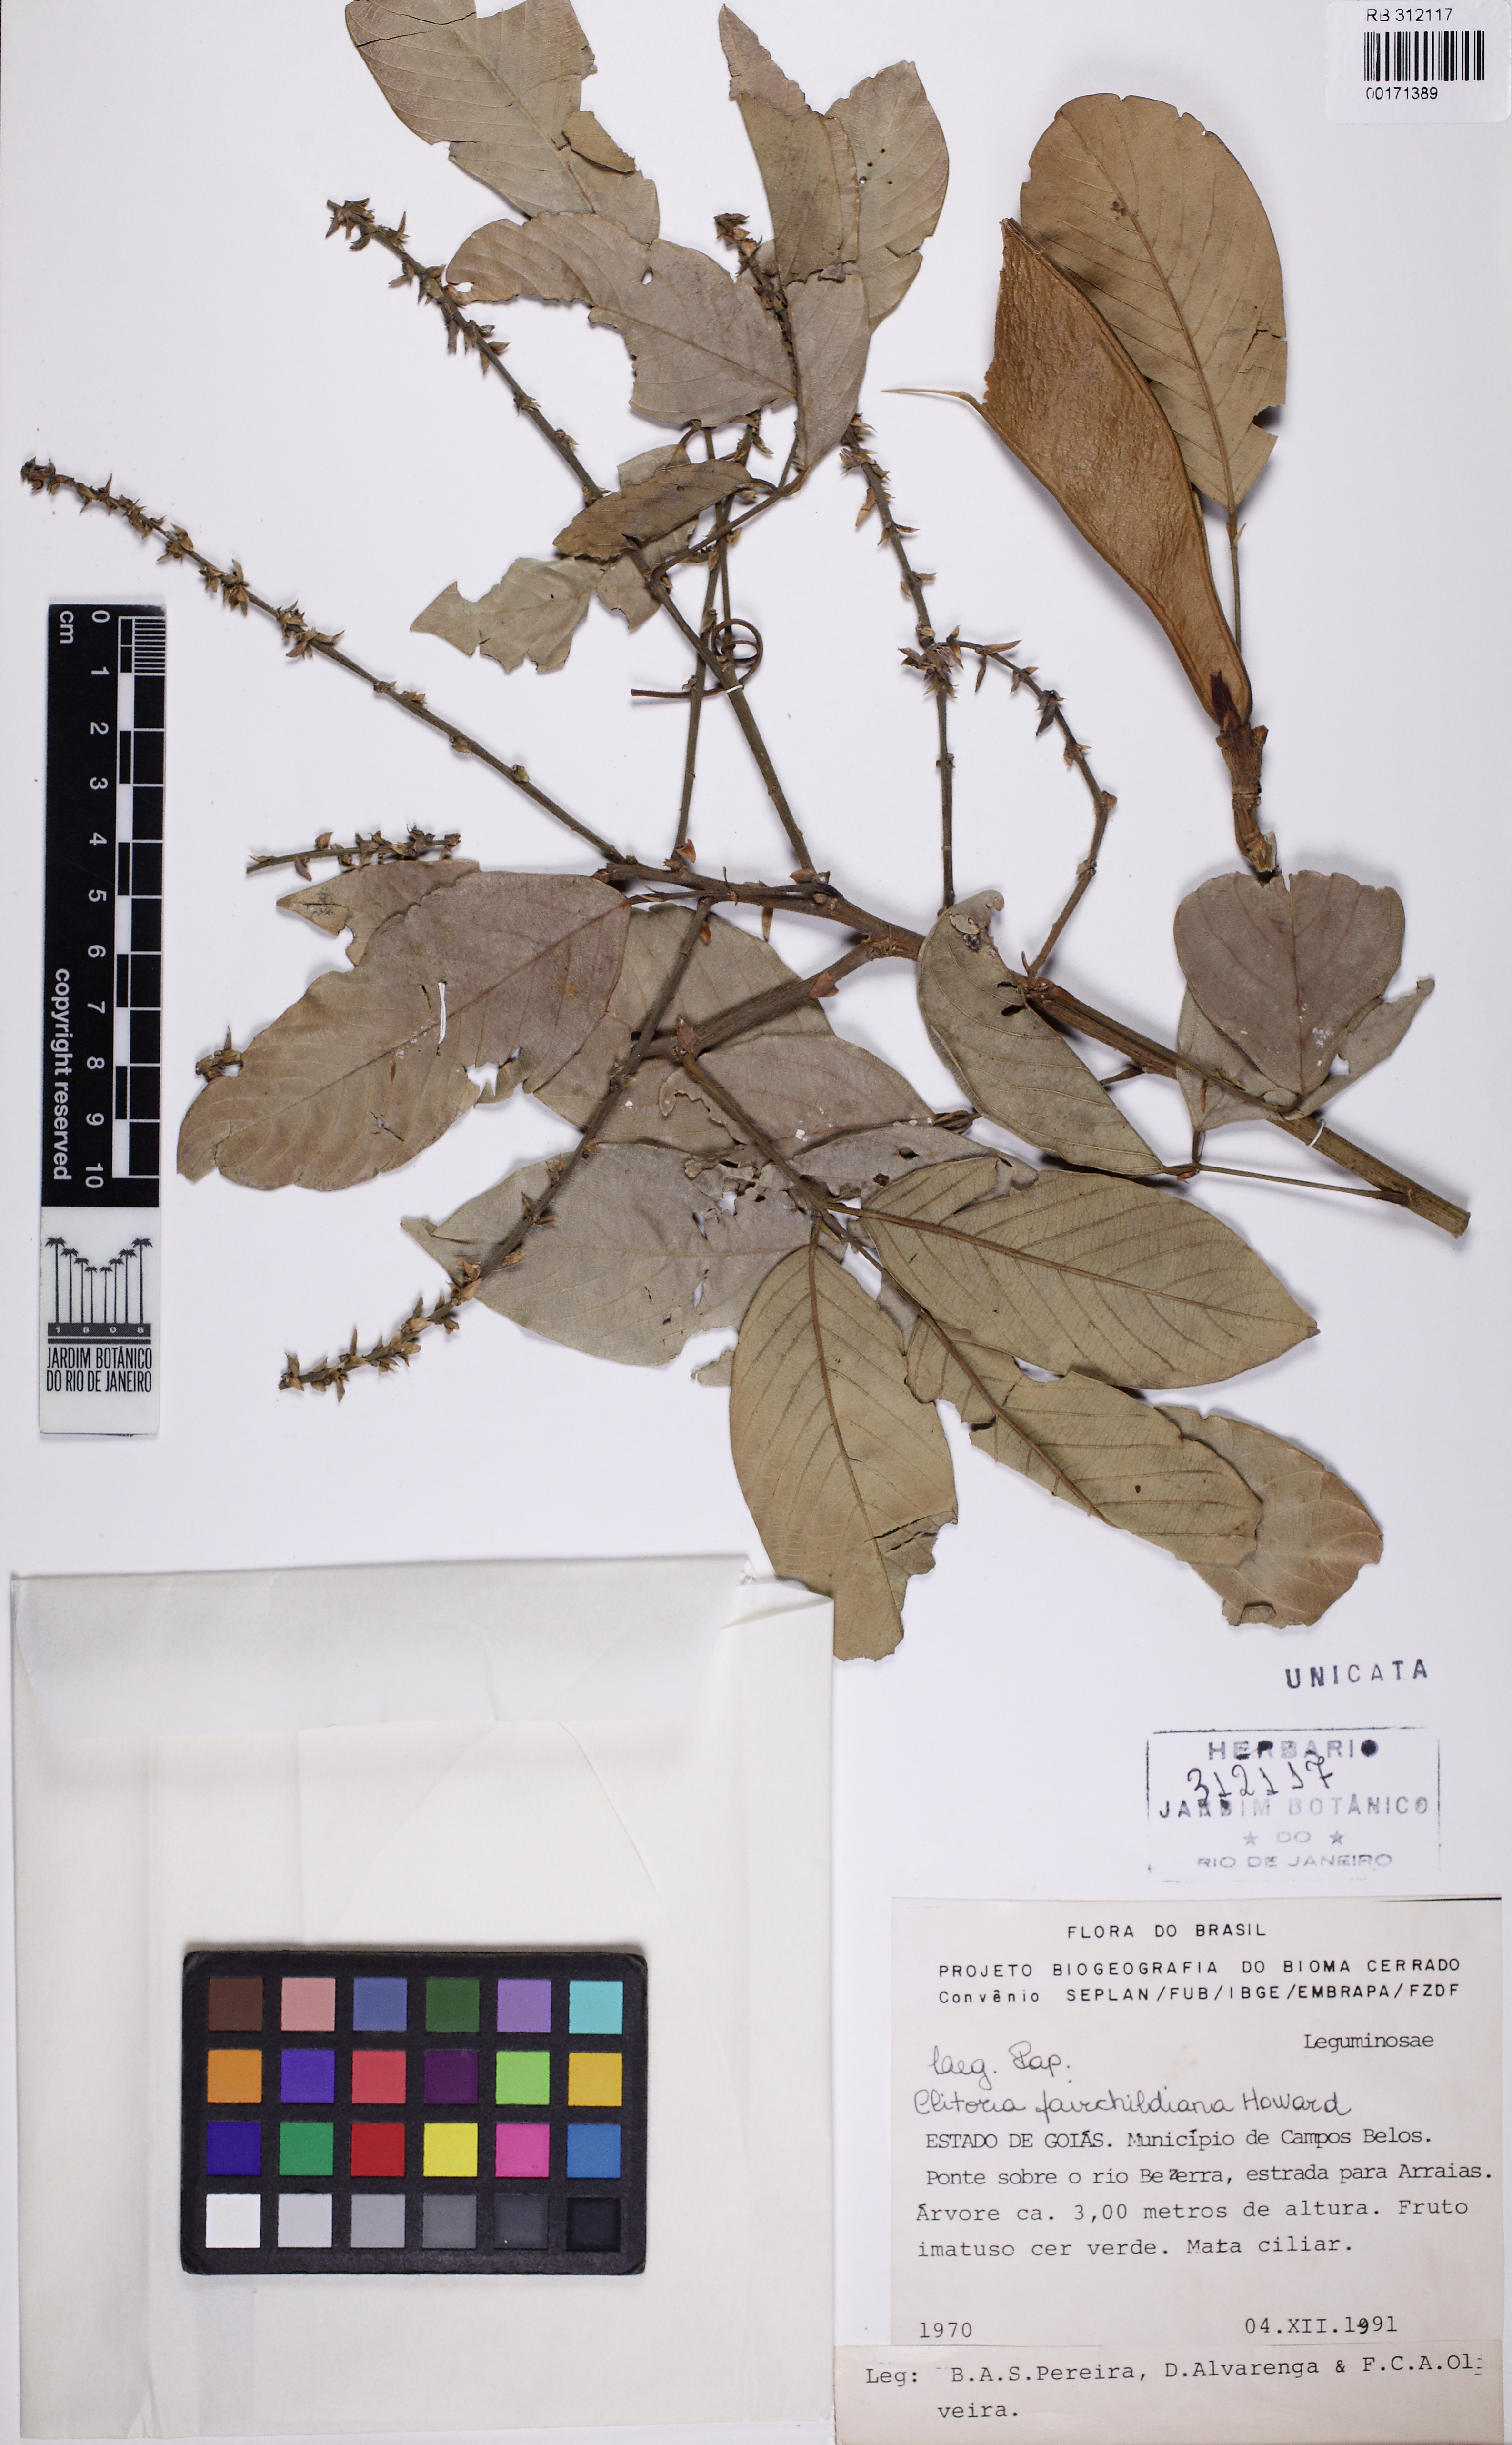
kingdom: Plantae
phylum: Tracheophyta
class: Magnoliopsida
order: Fabales
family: Fabaceae
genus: Clitoria
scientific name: Clitoria fairchildiana
